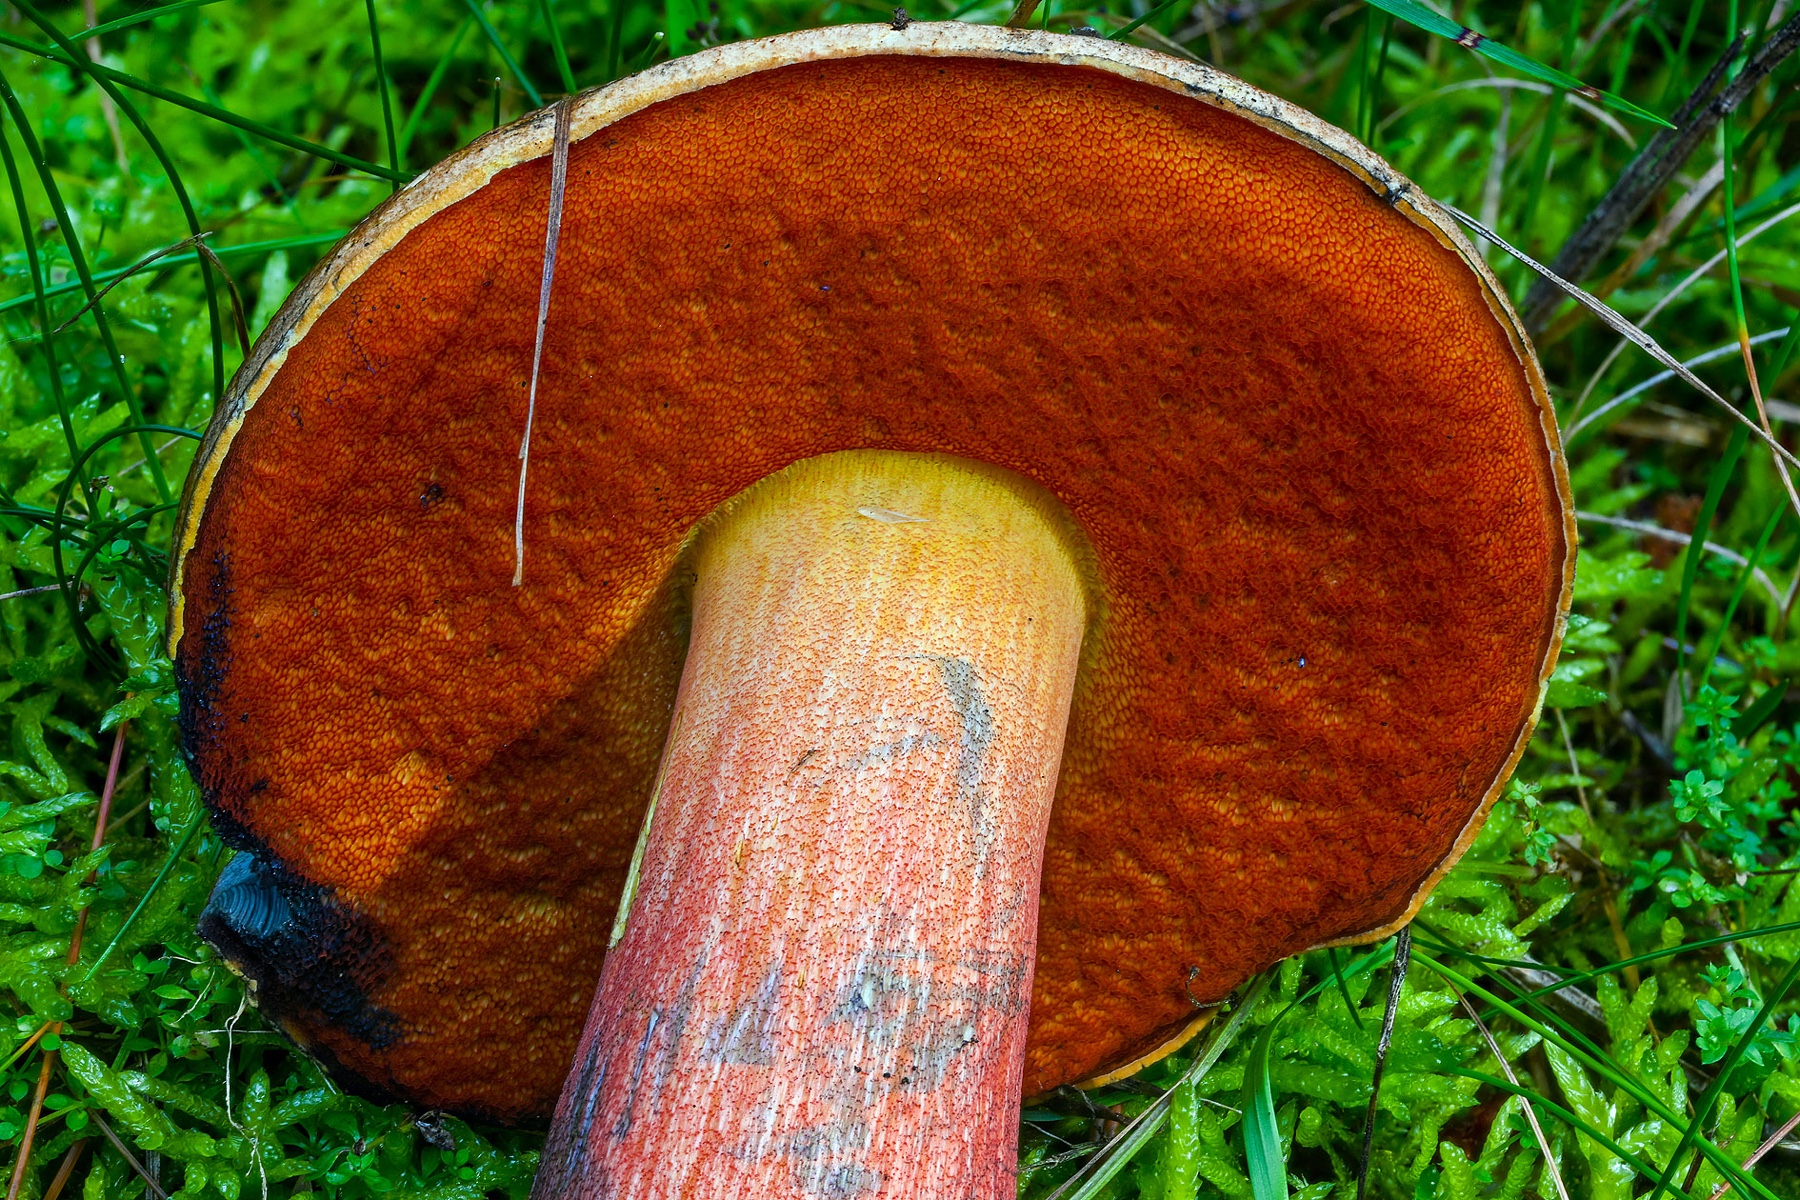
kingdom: Fungi
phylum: Basidiomycota
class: Agaricomycetes
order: Boletales
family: Boletaceae
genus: Neoboletus
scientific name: Neoboletus erythropus
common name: punktstokket indigorørhat
